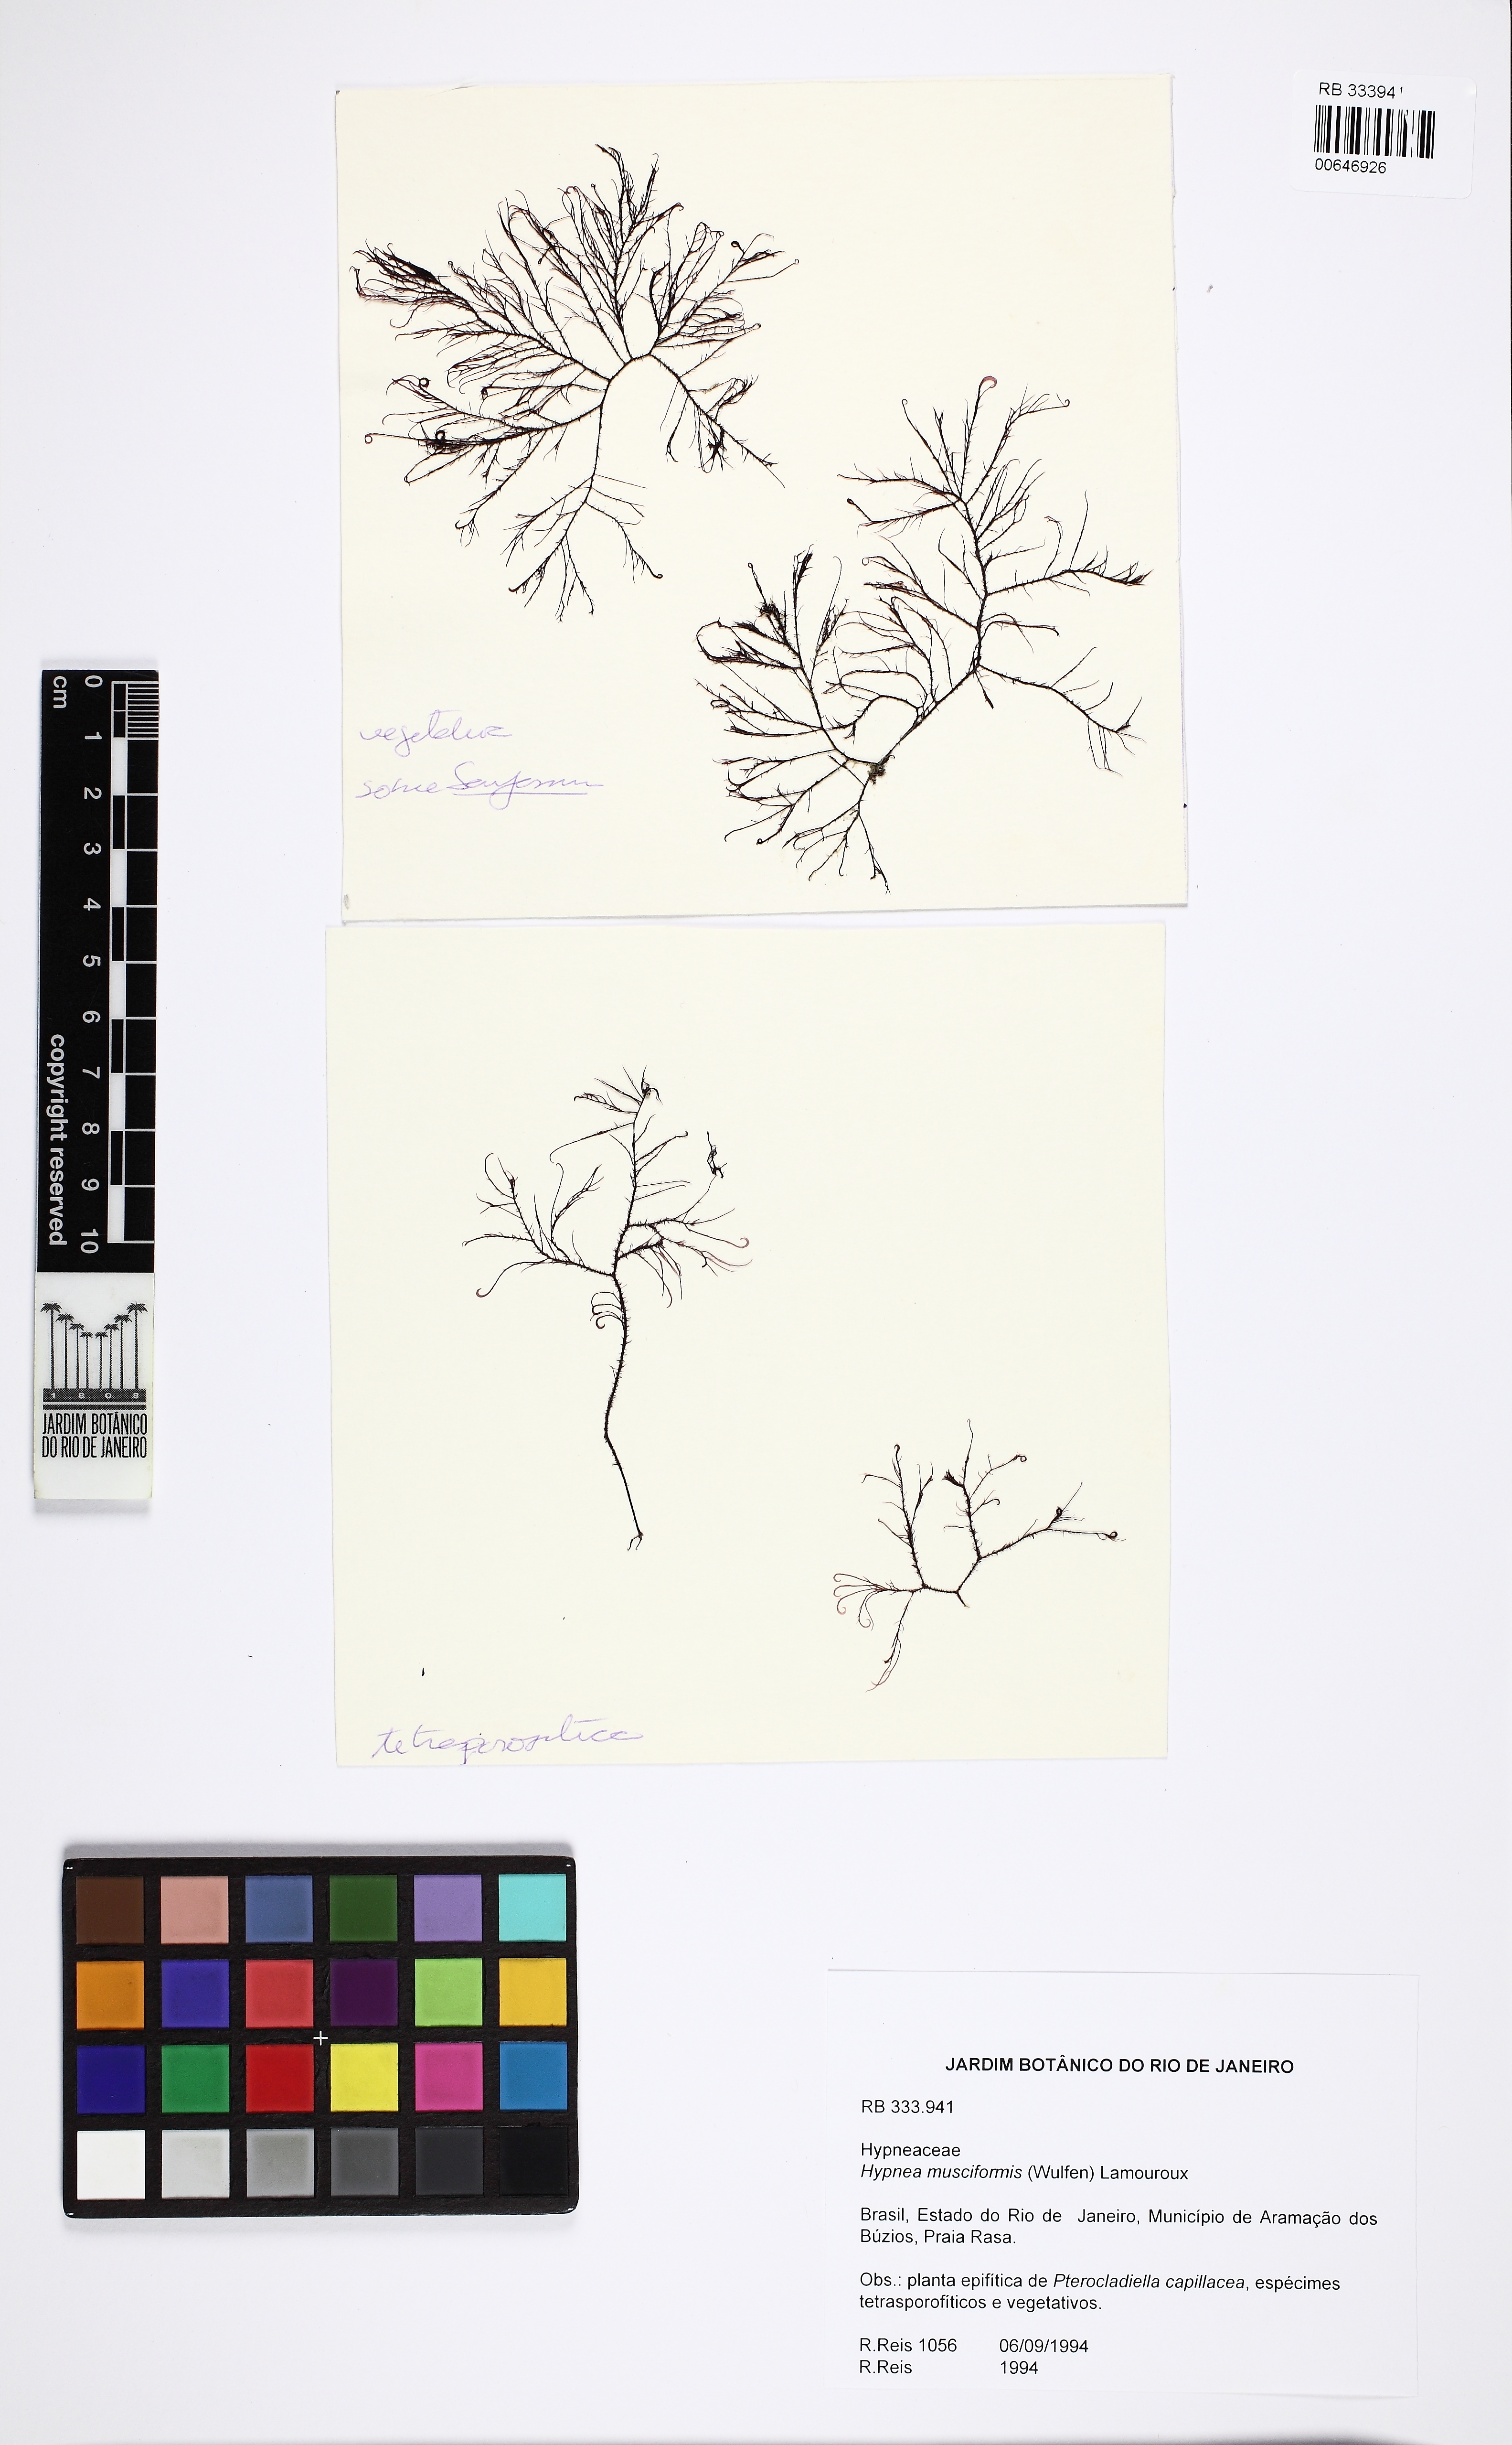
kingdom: Plantae
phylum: Rhodophyta
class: Florideophyceae
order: Gigartinales
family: Cystocloniaceae
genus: Hypnea
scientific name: Hypnea musciformis
